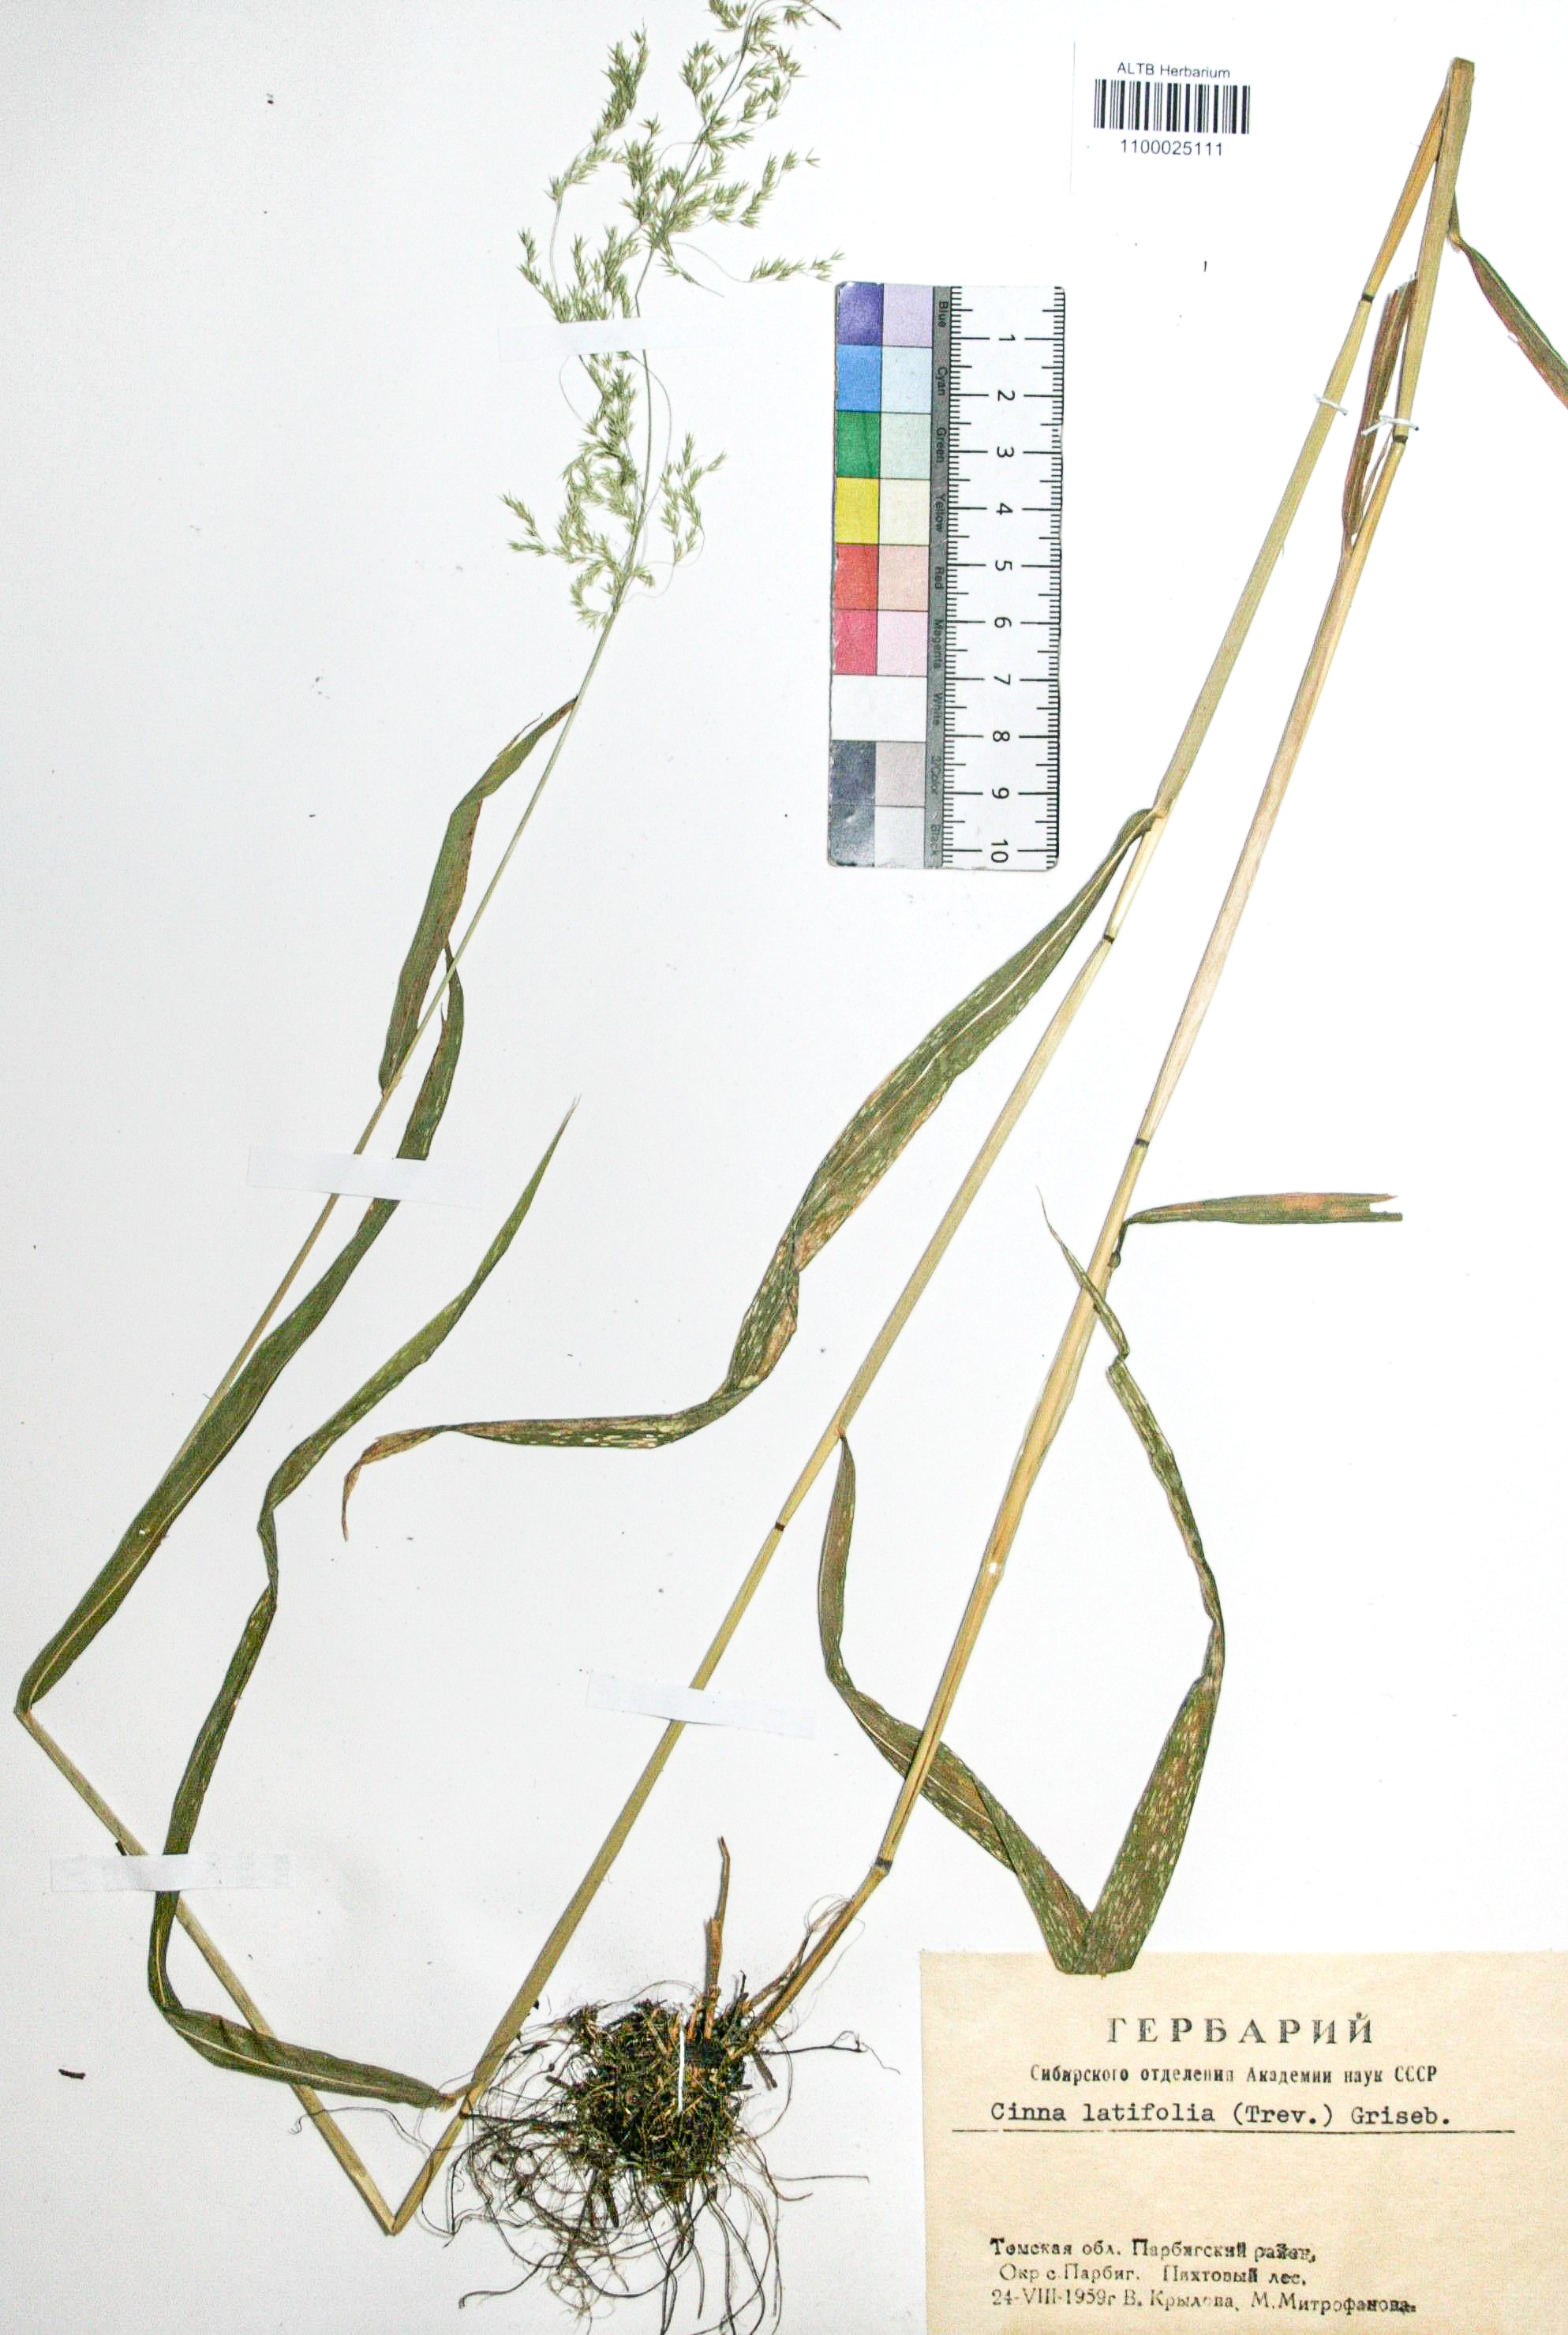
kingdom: Plantae
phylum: Tracheophyta
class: Liliopsida
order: Poales
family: Poaceae
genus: Cinna
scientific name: Cinna latifolia
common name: Drooping woodreed
